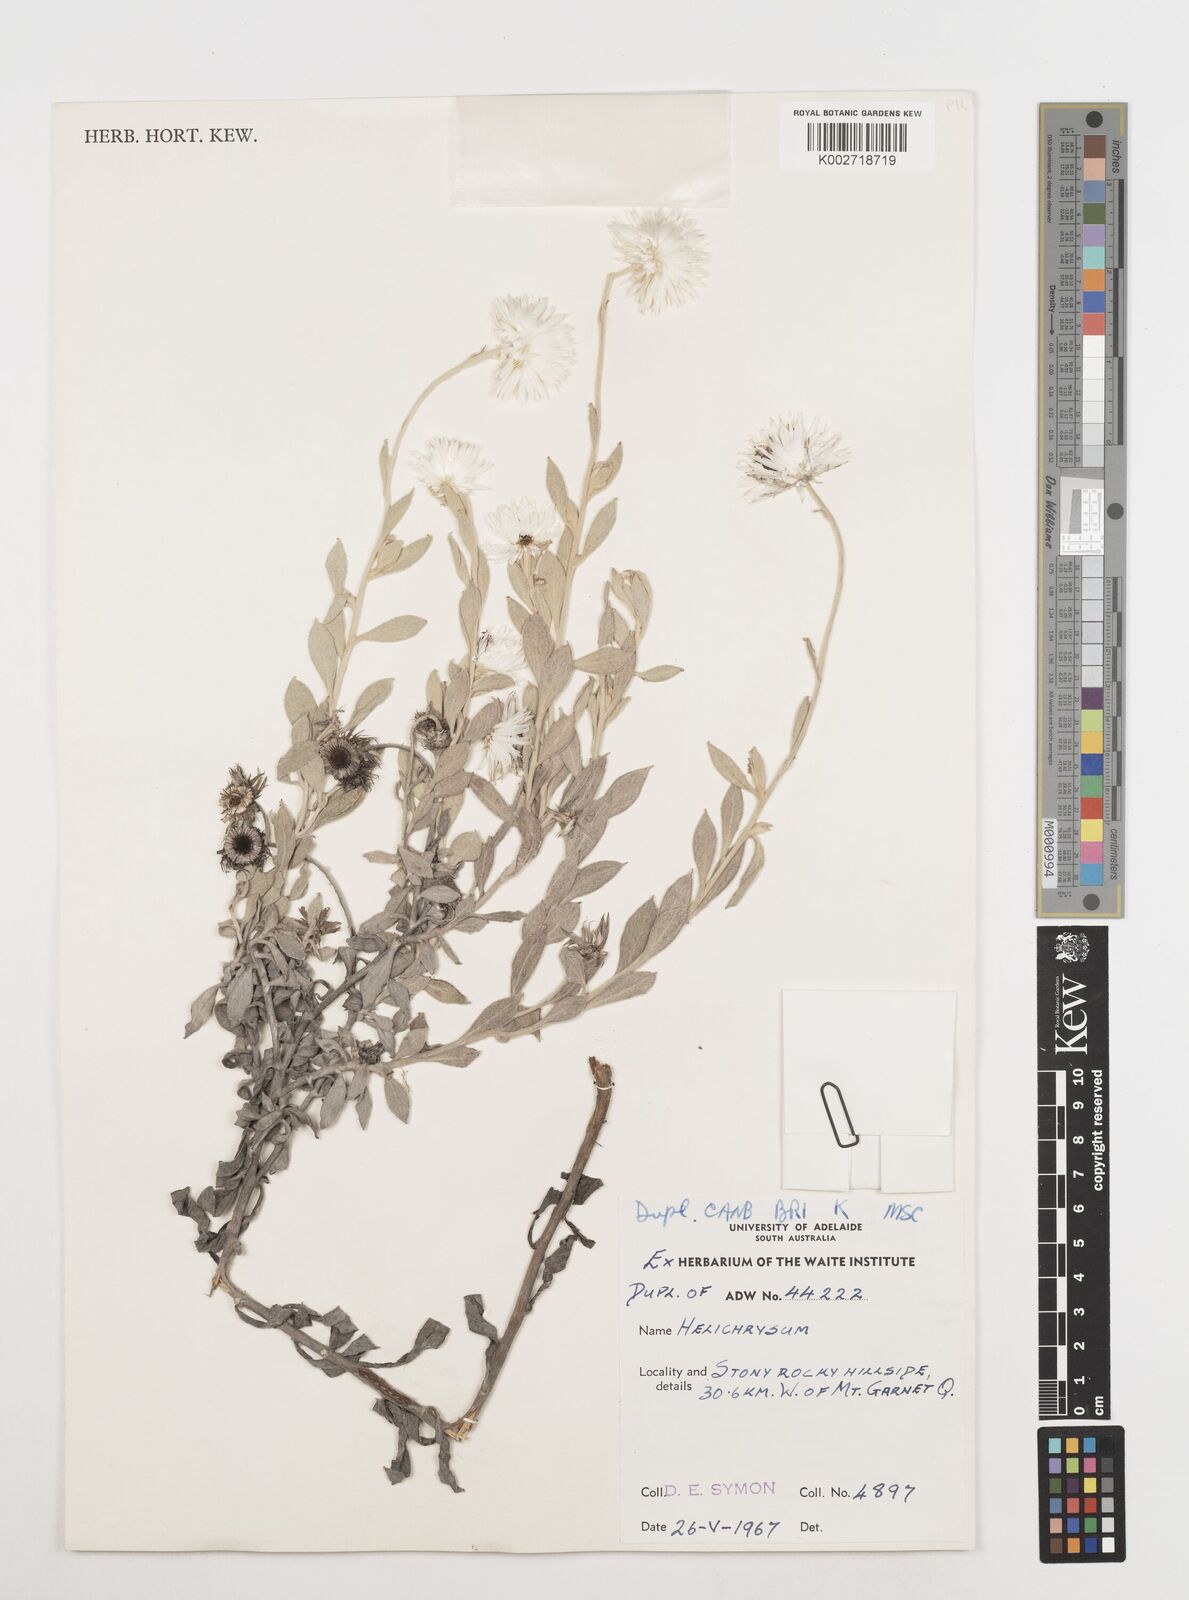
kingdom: Plantae
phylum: Tracheophyta
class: Magnoliopsida
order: Asterales
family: Asteraceae
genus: Coronidium
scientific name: Coronidium
